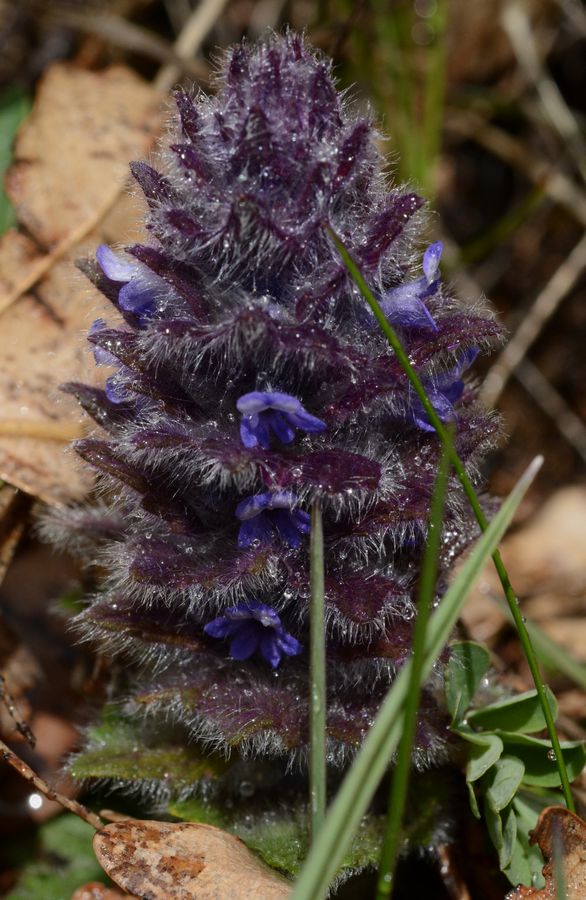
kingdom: Plantae
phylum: Tracheophyta
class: Magnoliopsida
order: Lamiales
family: Lamiaceae
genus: Ajuga
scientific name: Ajuga orientalis
